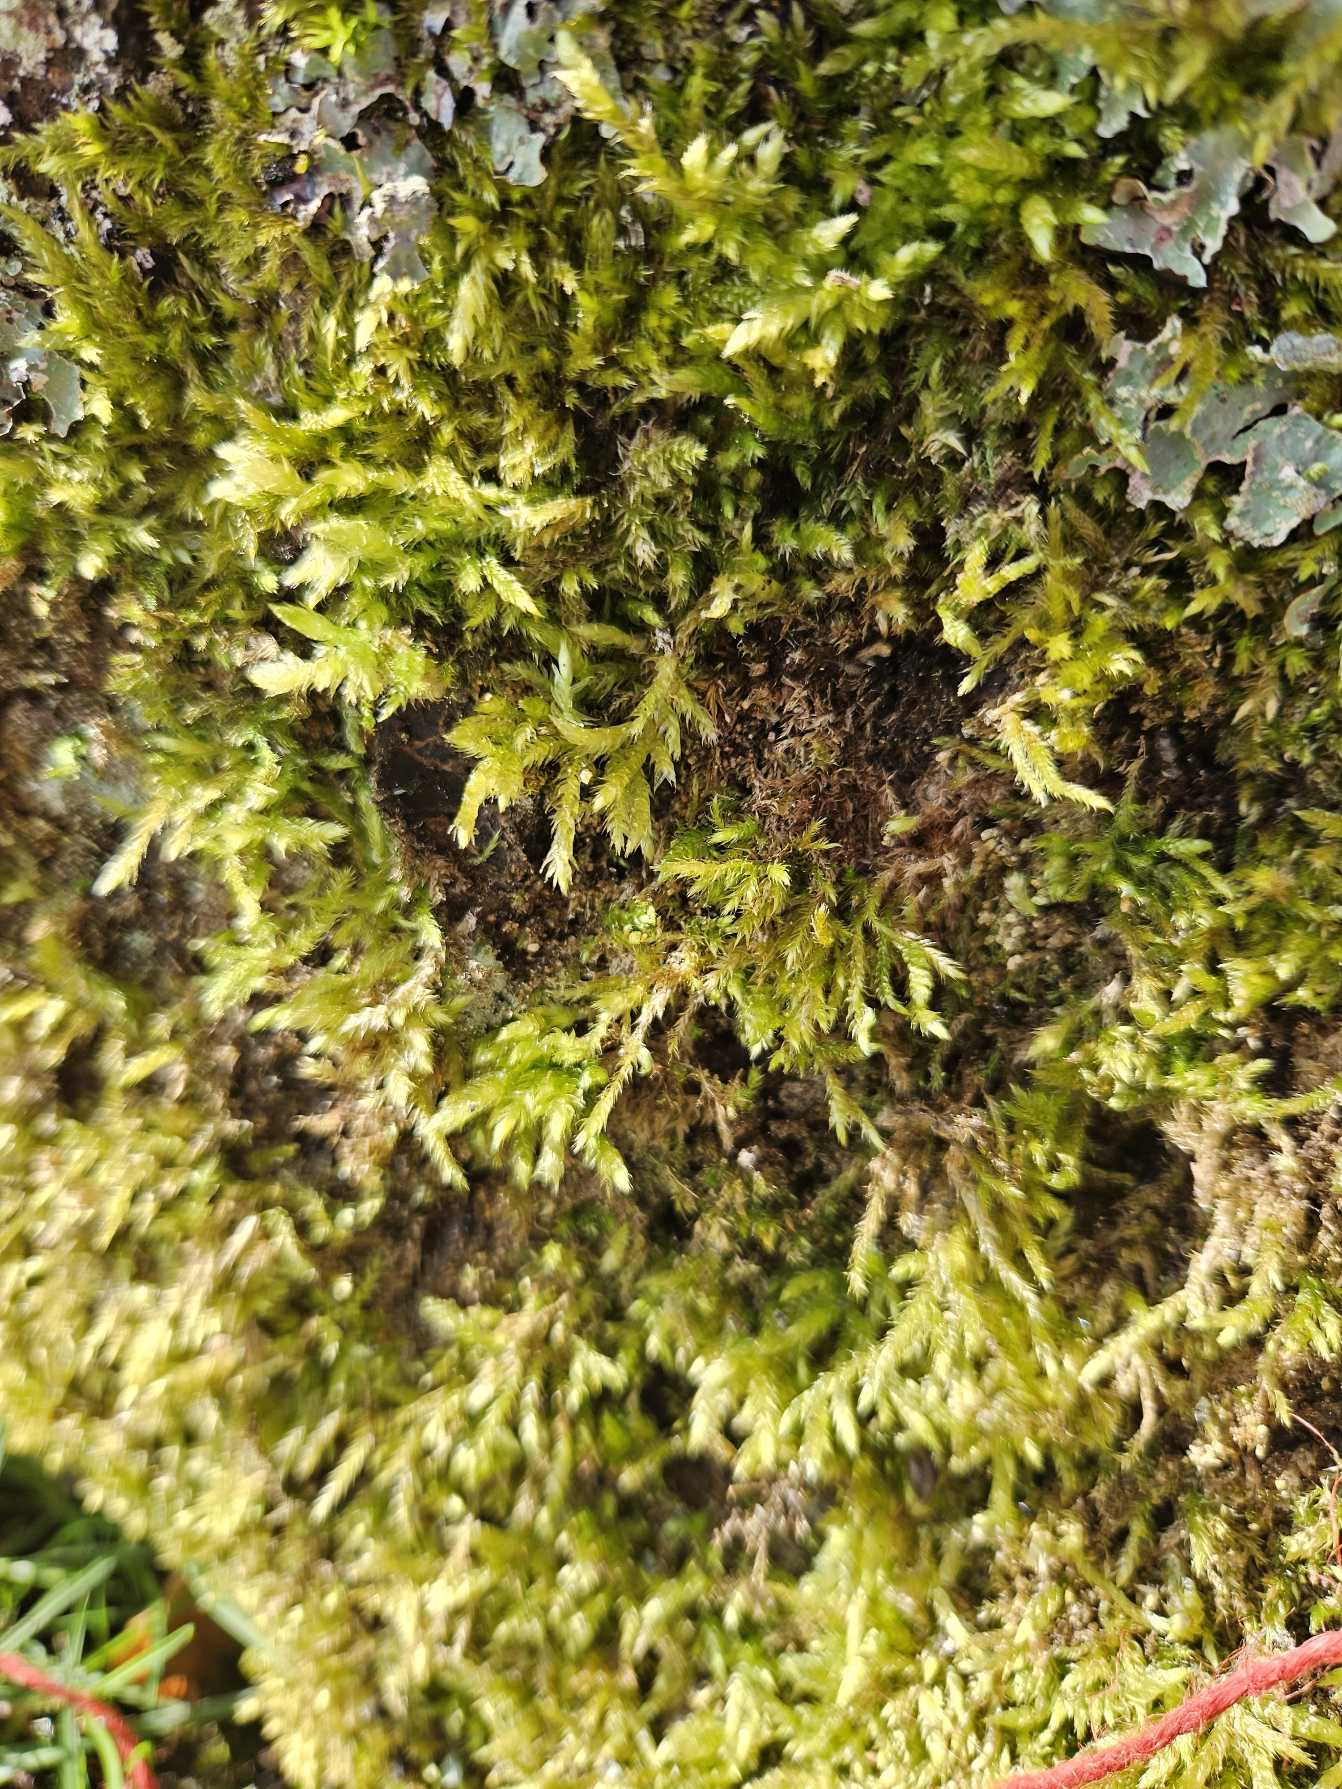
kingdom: Plantae
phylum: Bryophyta
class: Bryopsida
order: Hypnales
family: Brachytheciaceae
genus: Brachythecium
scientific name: Brachythecium rutabulum
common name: Almindelig kortkapsel
